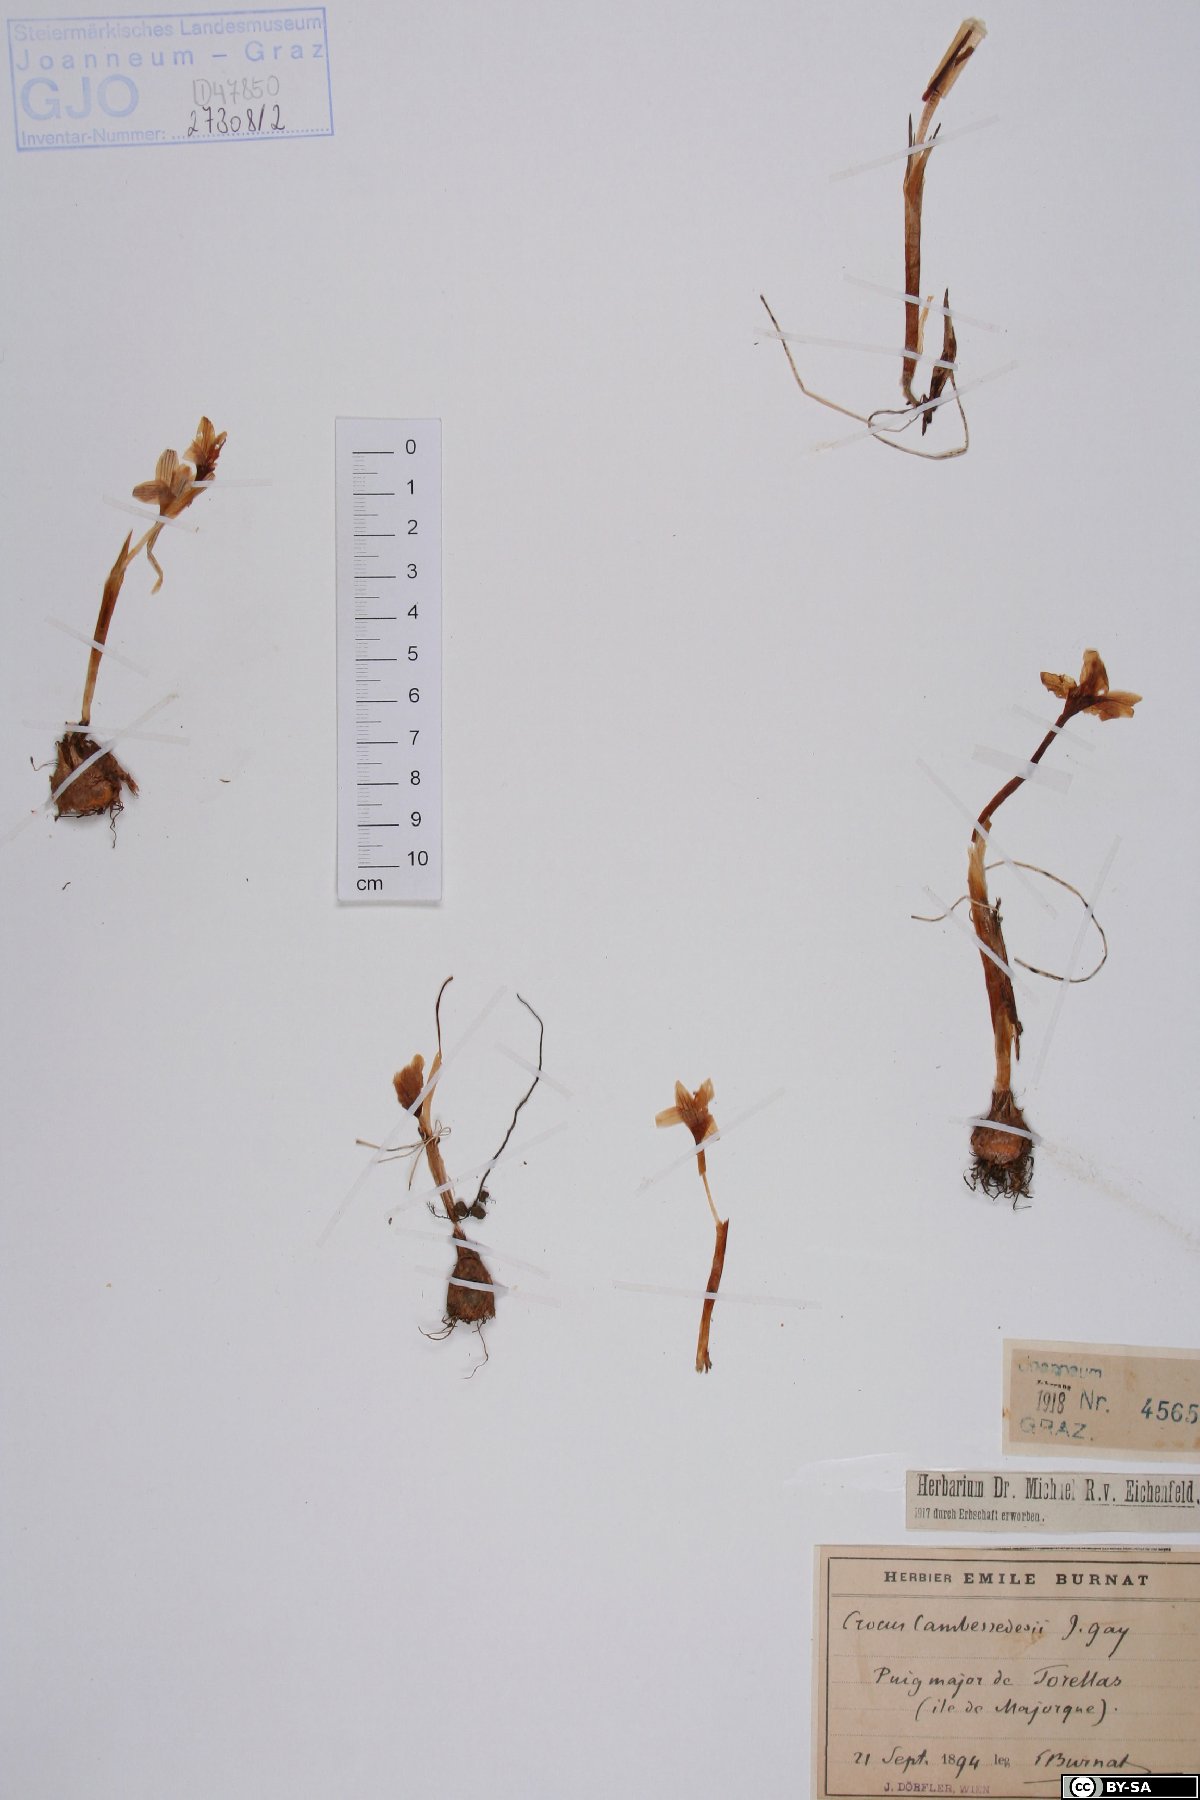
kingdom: Plantae
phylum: Tracheophyta
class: Liliopsida
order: Asparagales
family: Iridaceae
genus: Crocus
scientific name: Crocus cambessedesii
